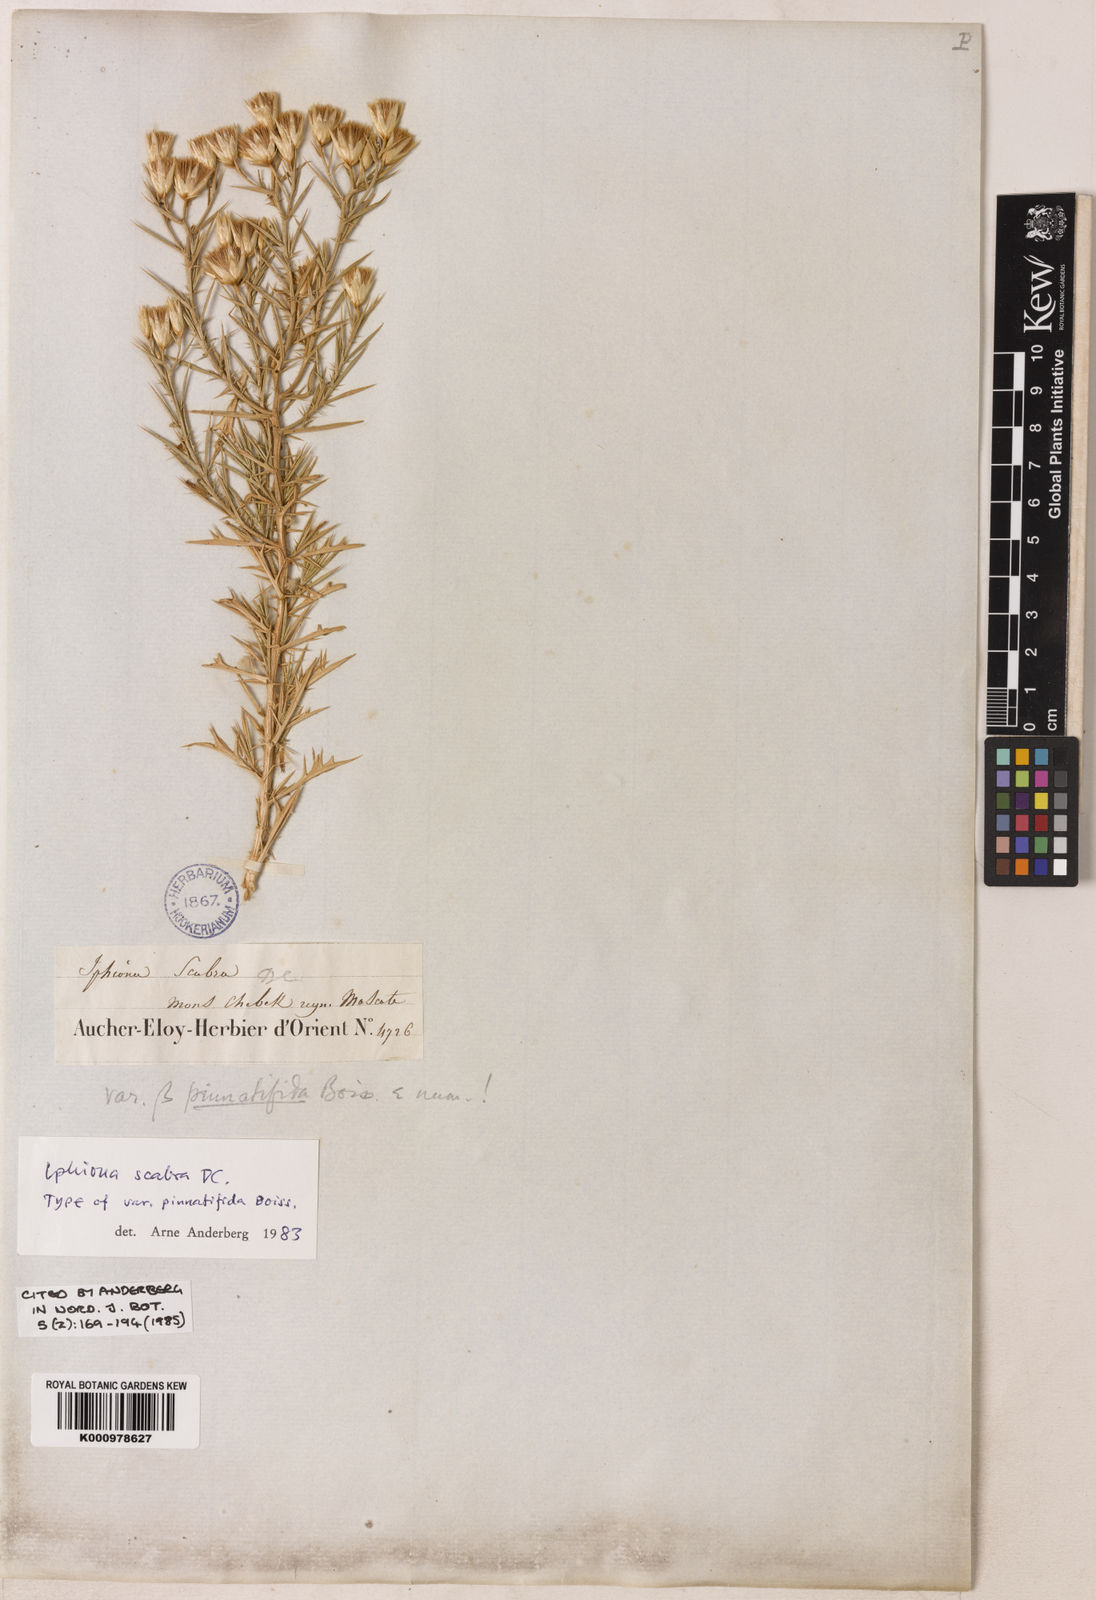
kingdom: Plantae
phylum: Tracheophyta
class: Magnoliopsida
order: Asterales
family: Asteraceae
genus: Iphiona
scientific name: Iphiona
